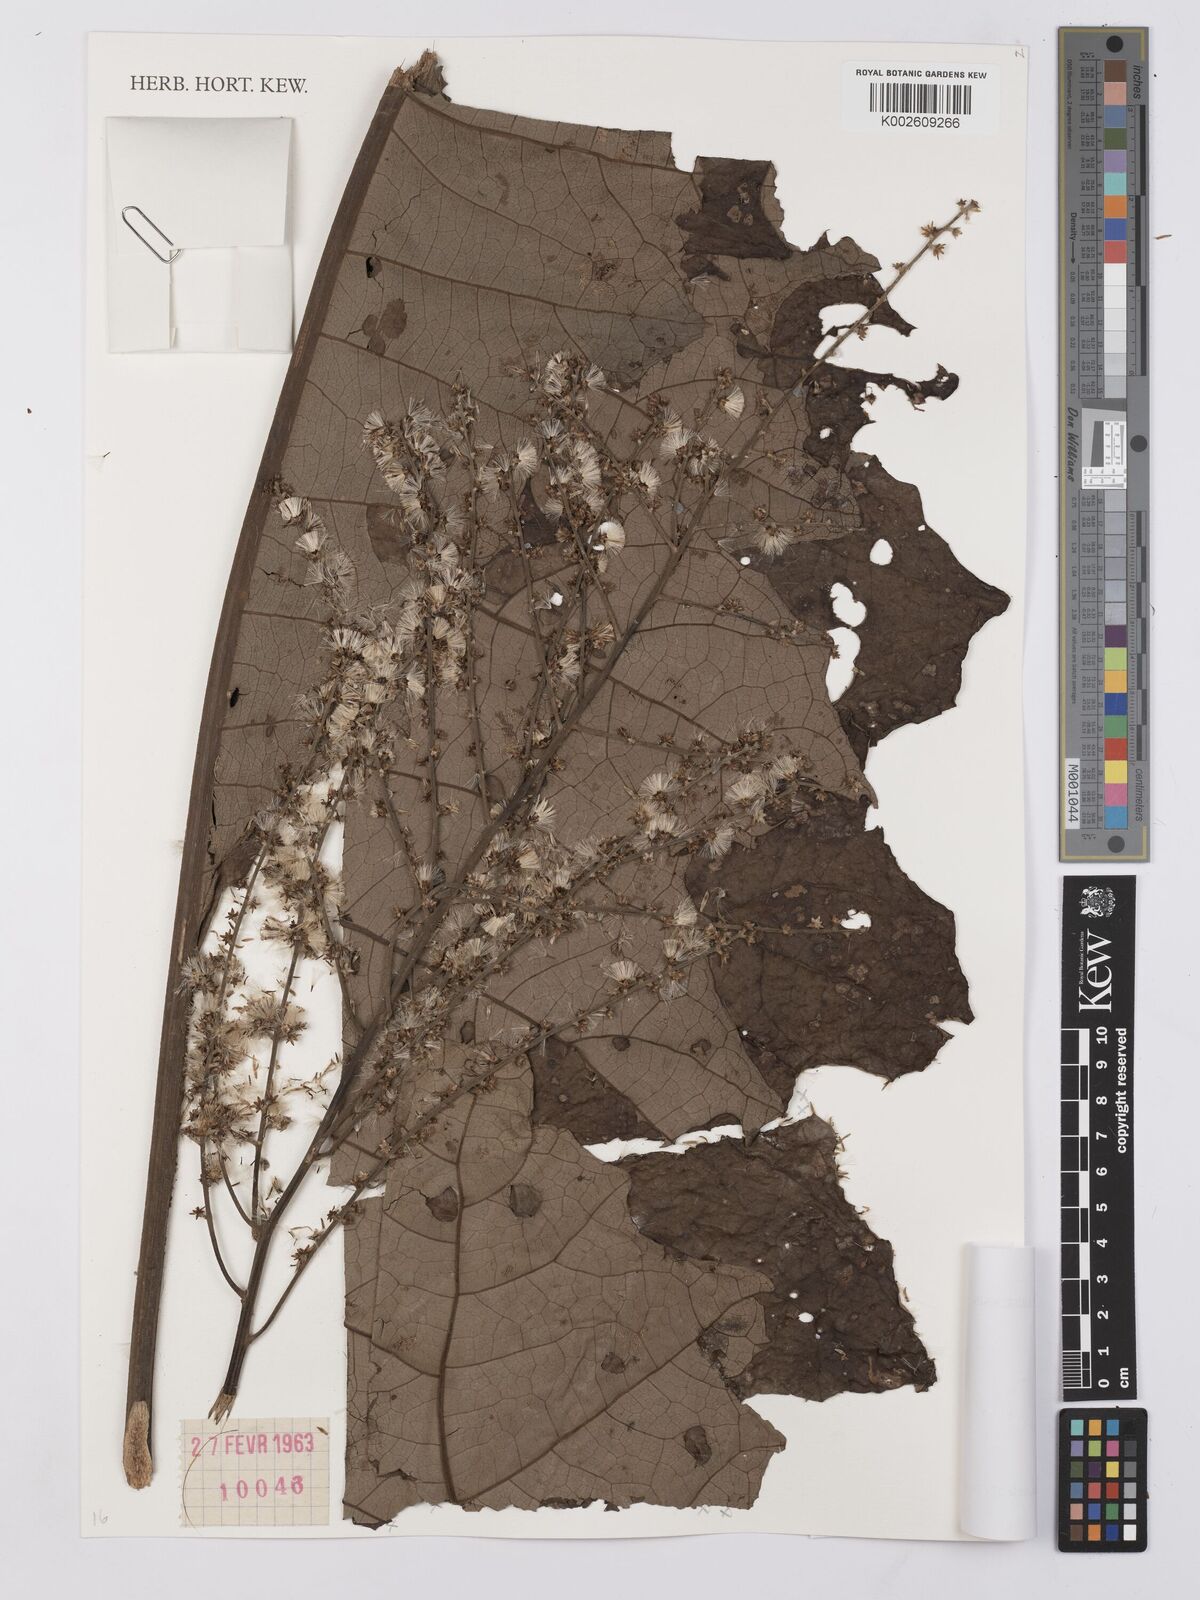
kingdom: Plantae
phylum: Tracheophyta
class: Magnoliopsida
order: Asterales
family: Asteraceae
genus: Monosis
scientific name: Monosis conferta
